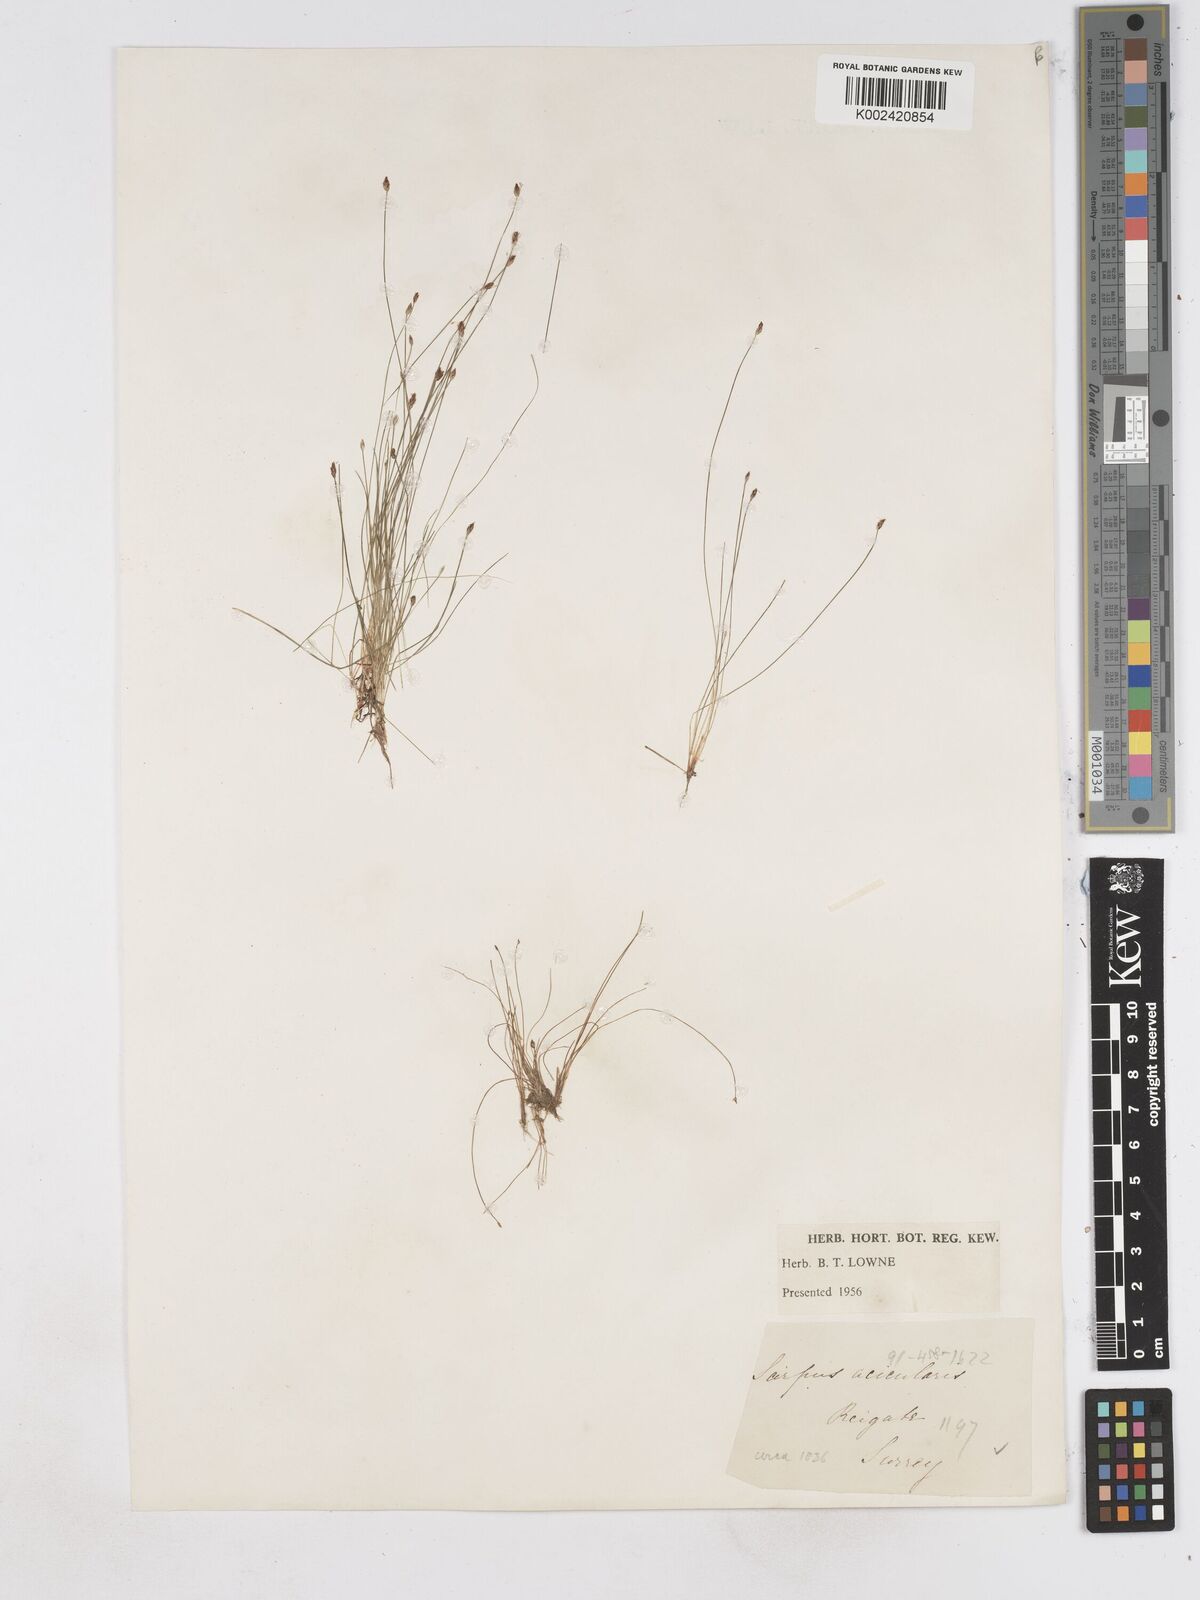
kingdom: Plantae
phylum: Tracheophyta
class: Liliopsida
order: Poales
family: Cyperaceae
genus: Eleocharis
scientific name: Eleocharis acicularis
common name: Needle spike-rush
